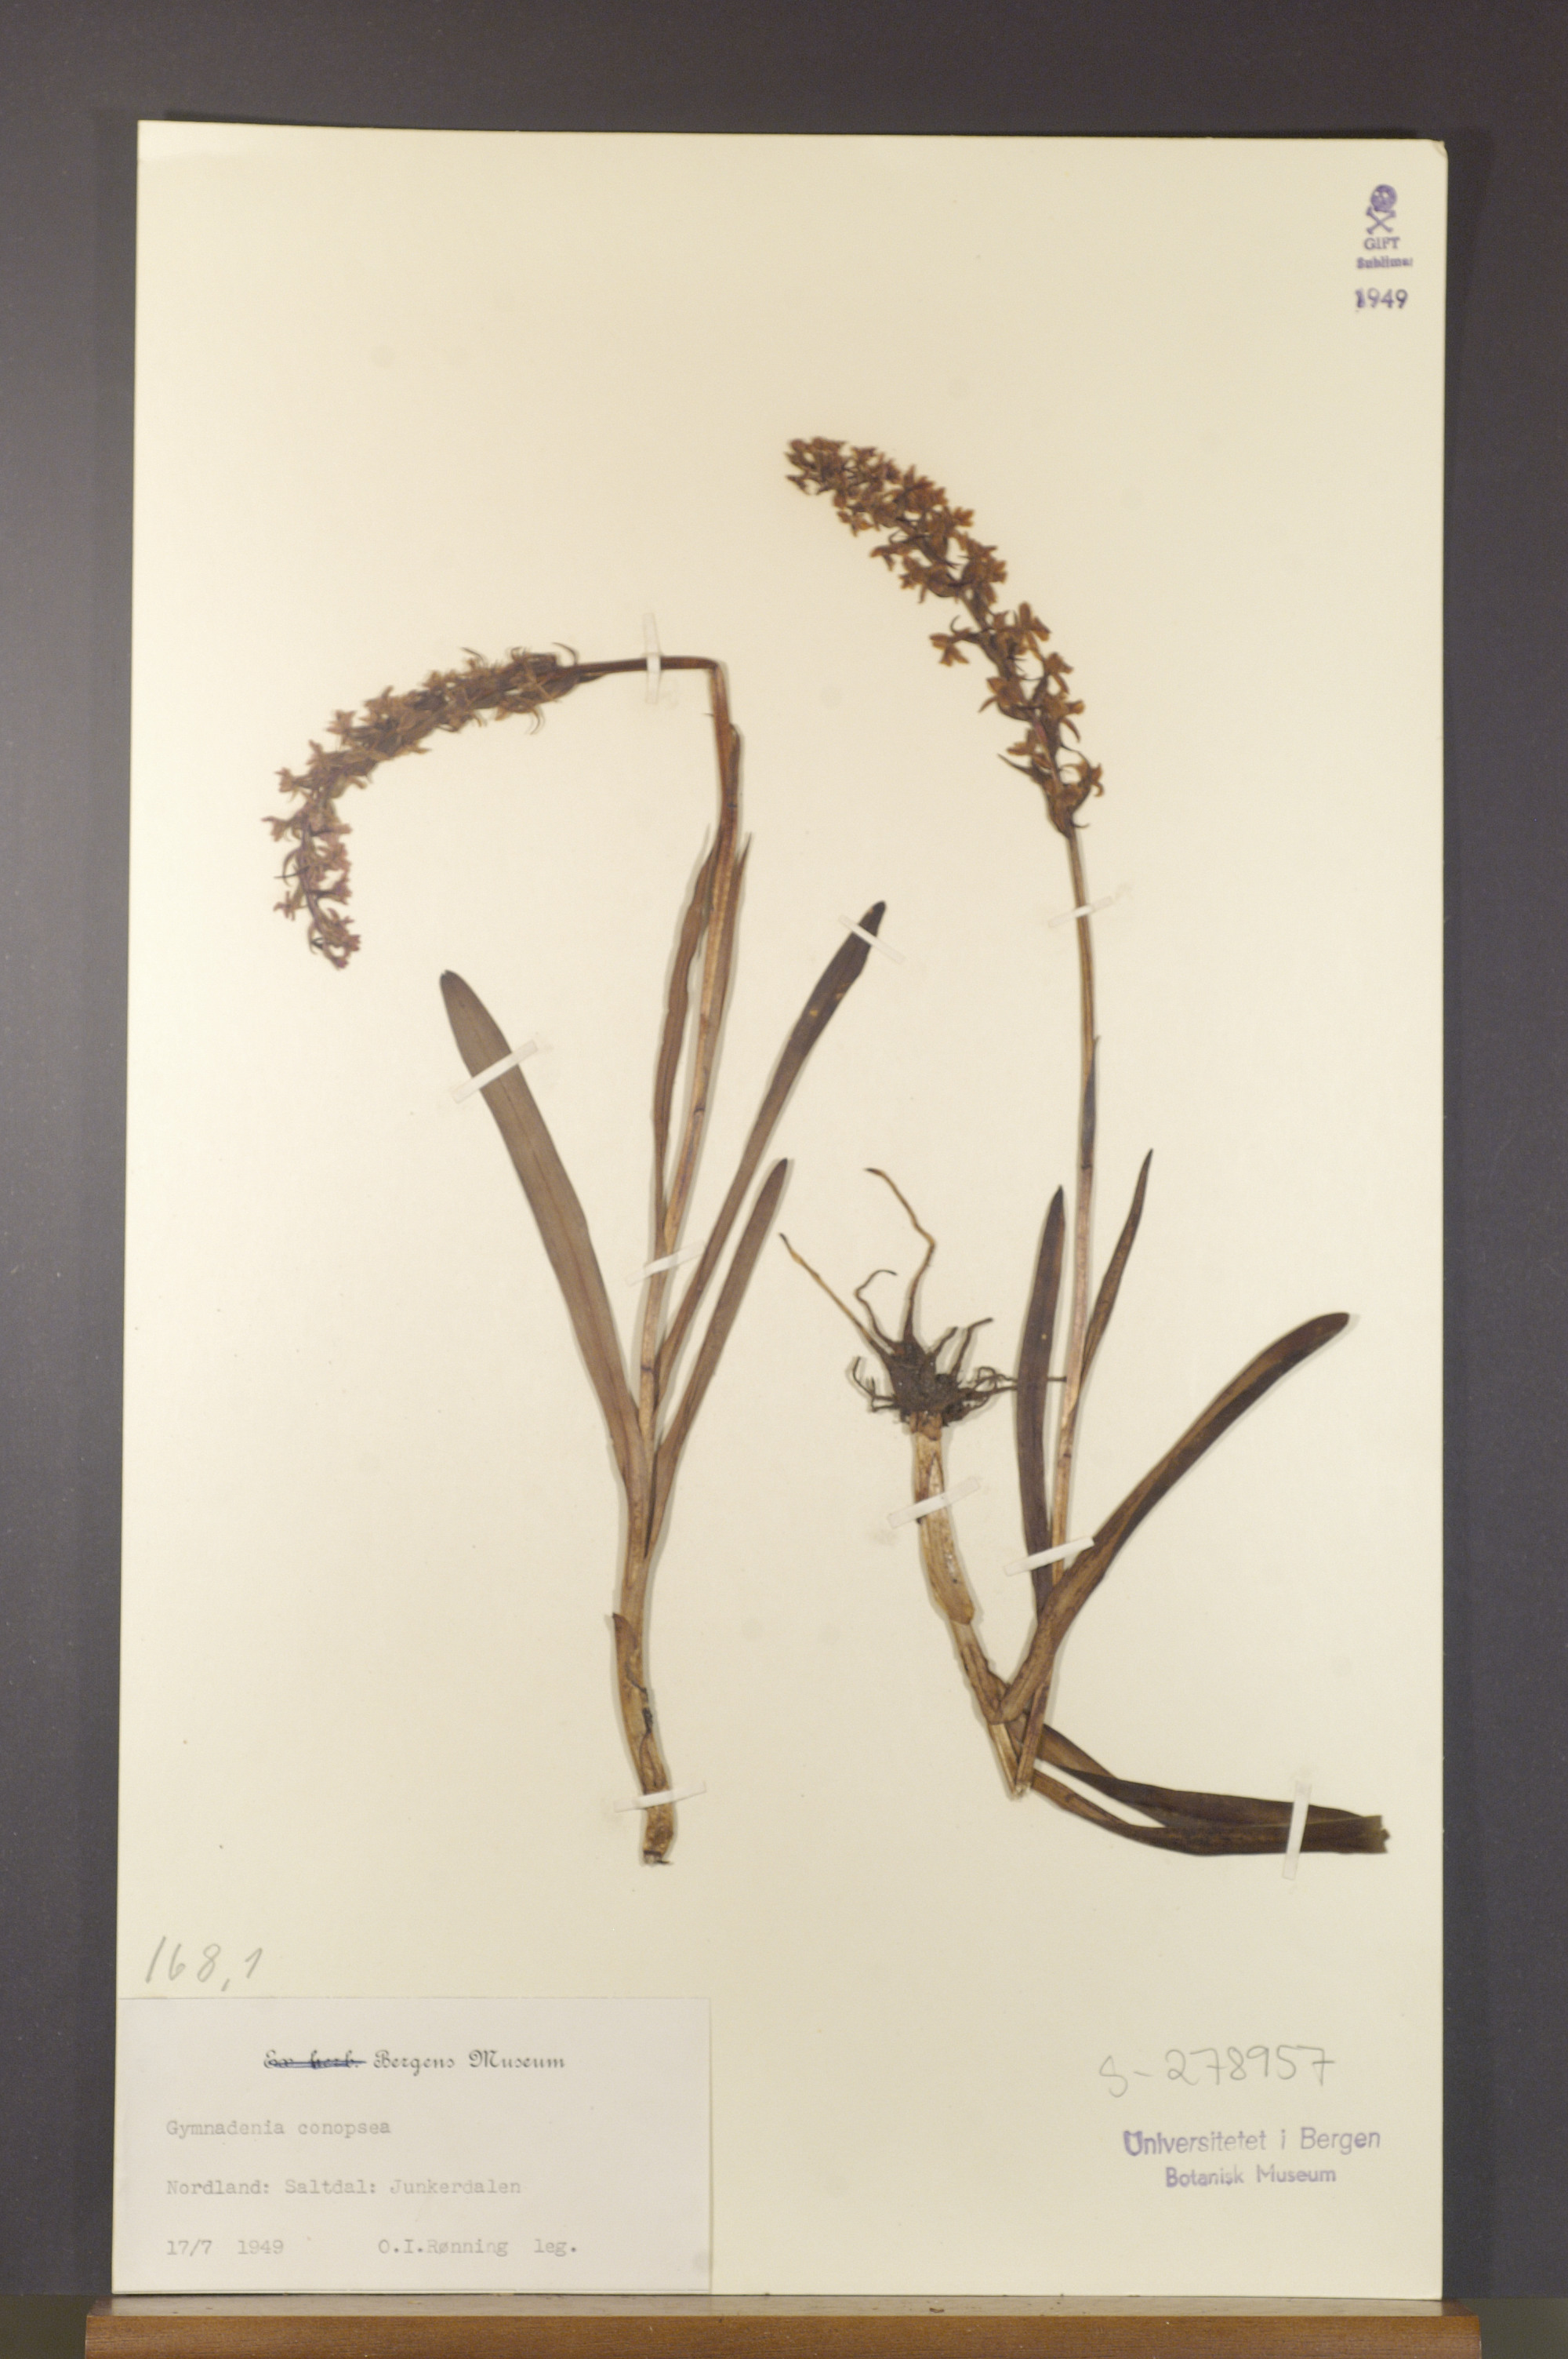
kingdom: Plantae
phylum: Tracheophyta
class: Liliopsida
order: Asparagales
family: Orchidaceae
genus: Gymnadenia
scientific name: Gymnadenia conopsea
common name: Fragrant orchid
